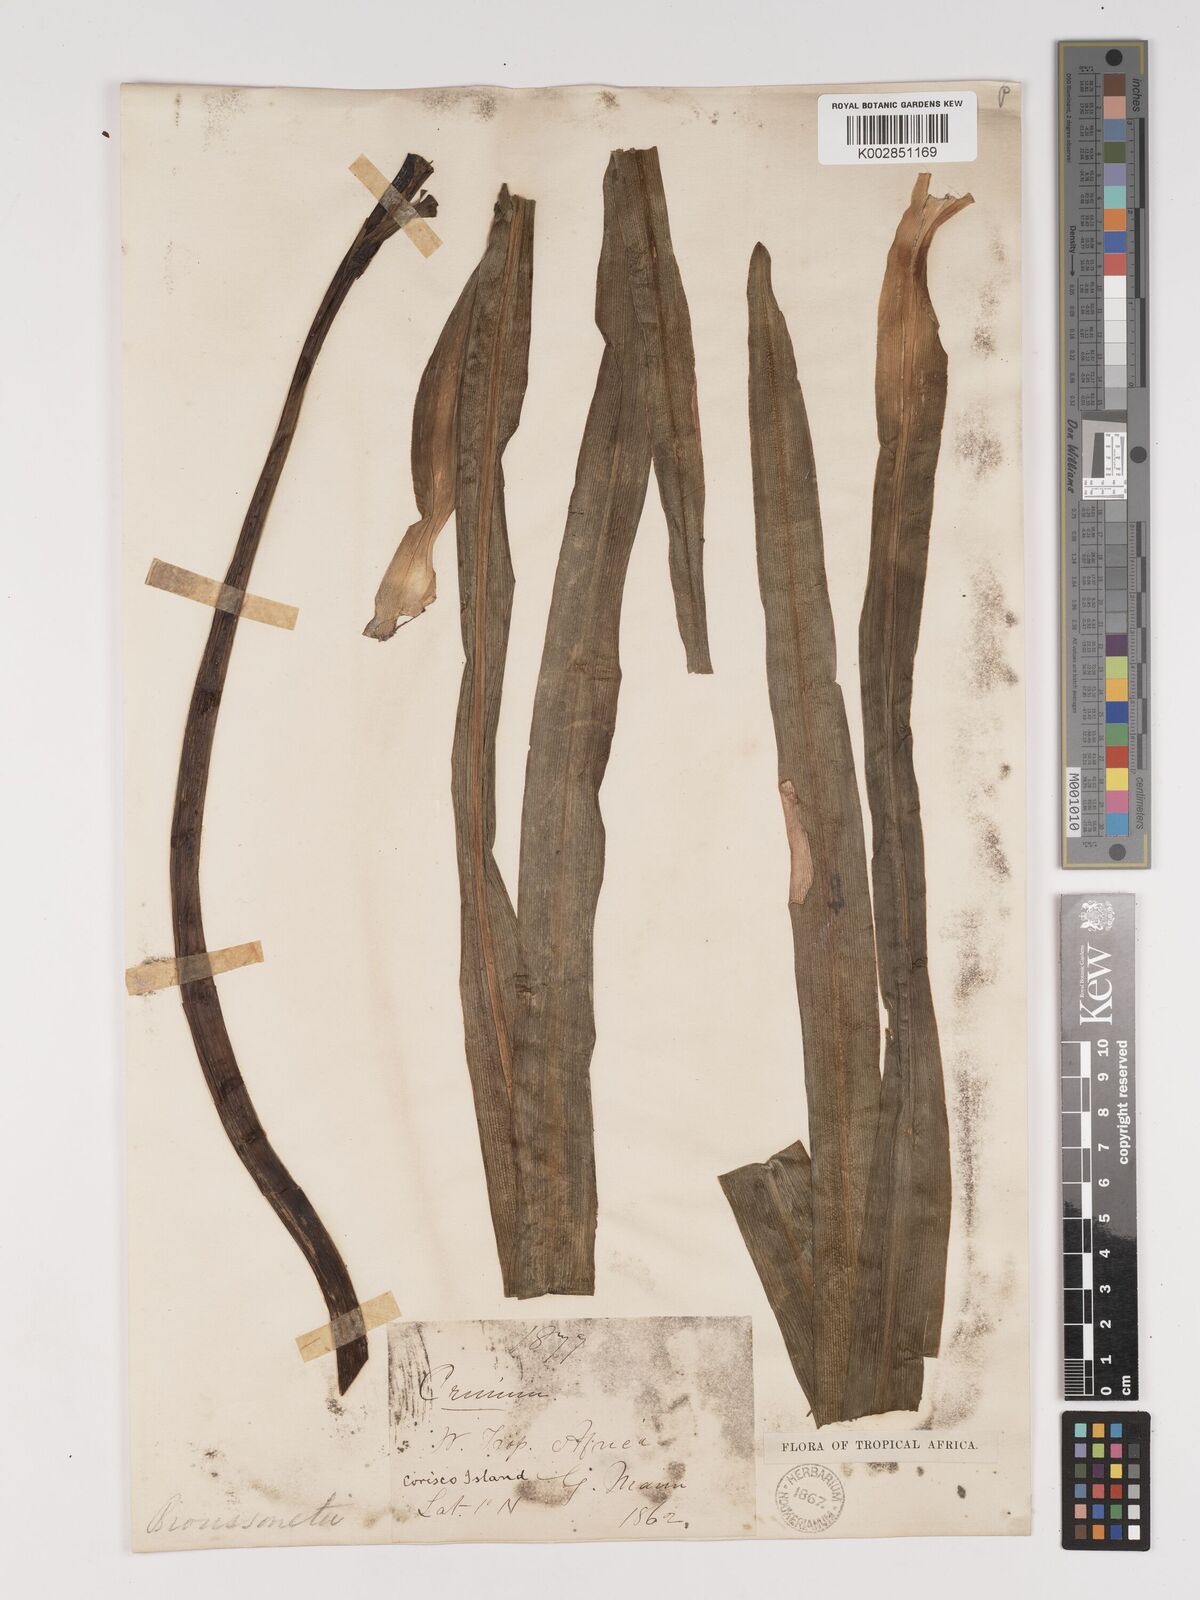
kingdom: Plantae
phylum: Tracheophyta
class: Liliopsida
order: Asparagales
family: Amaryllidaceae
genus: Crinum
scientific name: Crinum ornatum
